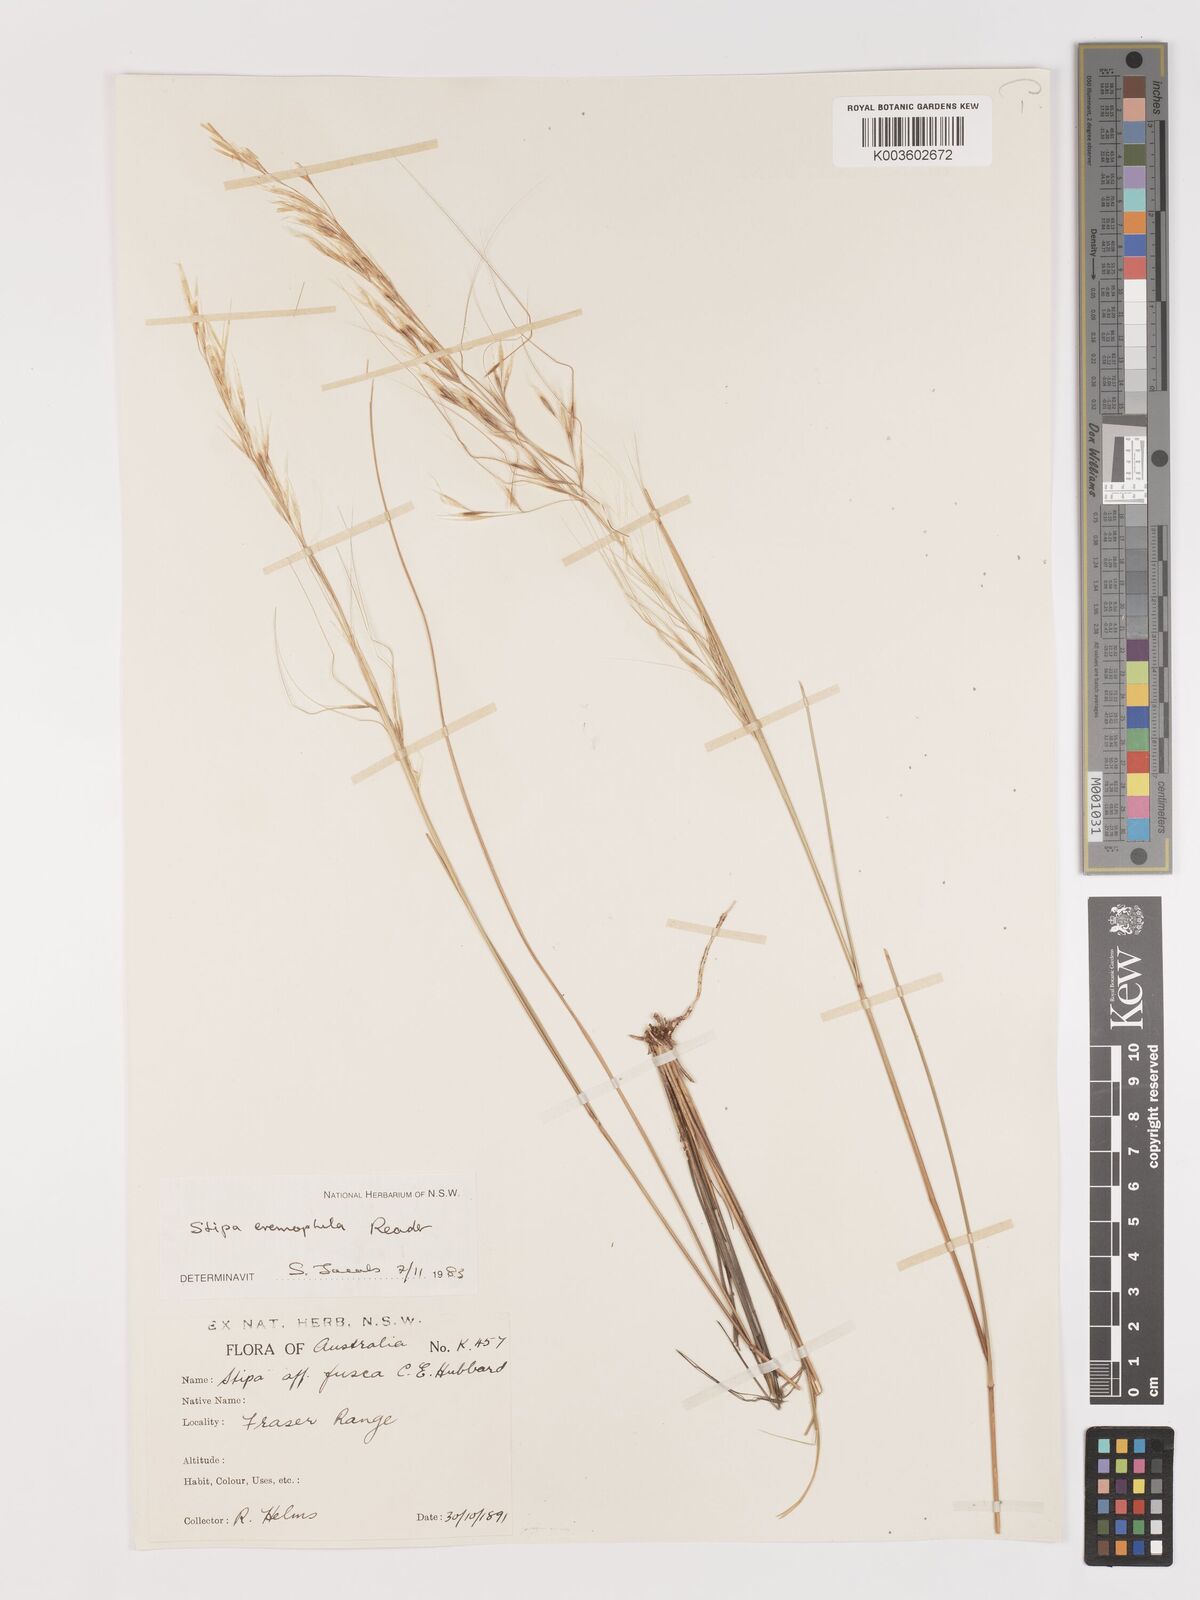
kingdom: Plantae
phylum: Tracheophyta
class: Liliopsida
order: Poales
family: Poaceae
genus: Austrostipa
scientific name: Austrostipa eremophila
